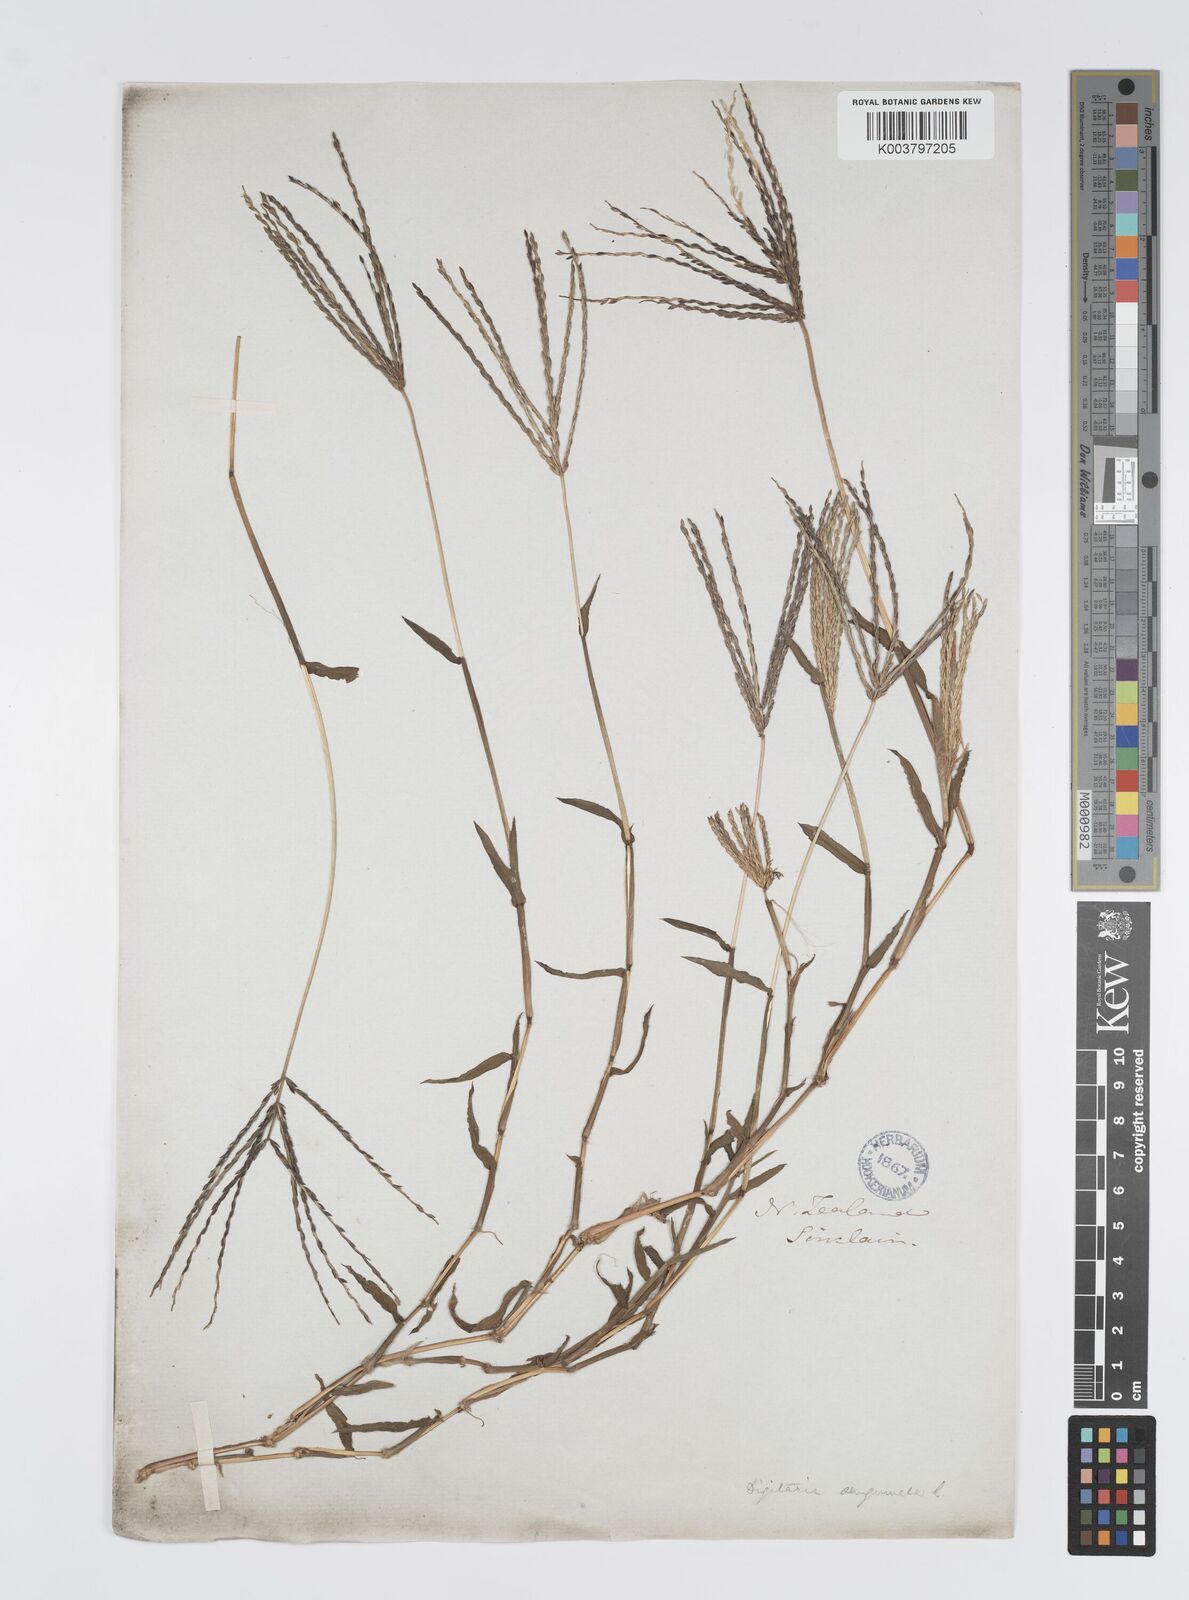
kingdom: Plantae
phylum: Tracheophyta
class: Liliopsida
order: Poales
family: Poaceae
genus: Digitaria
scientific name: Digitaria sanguinalis
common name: Hairy crabgrass
